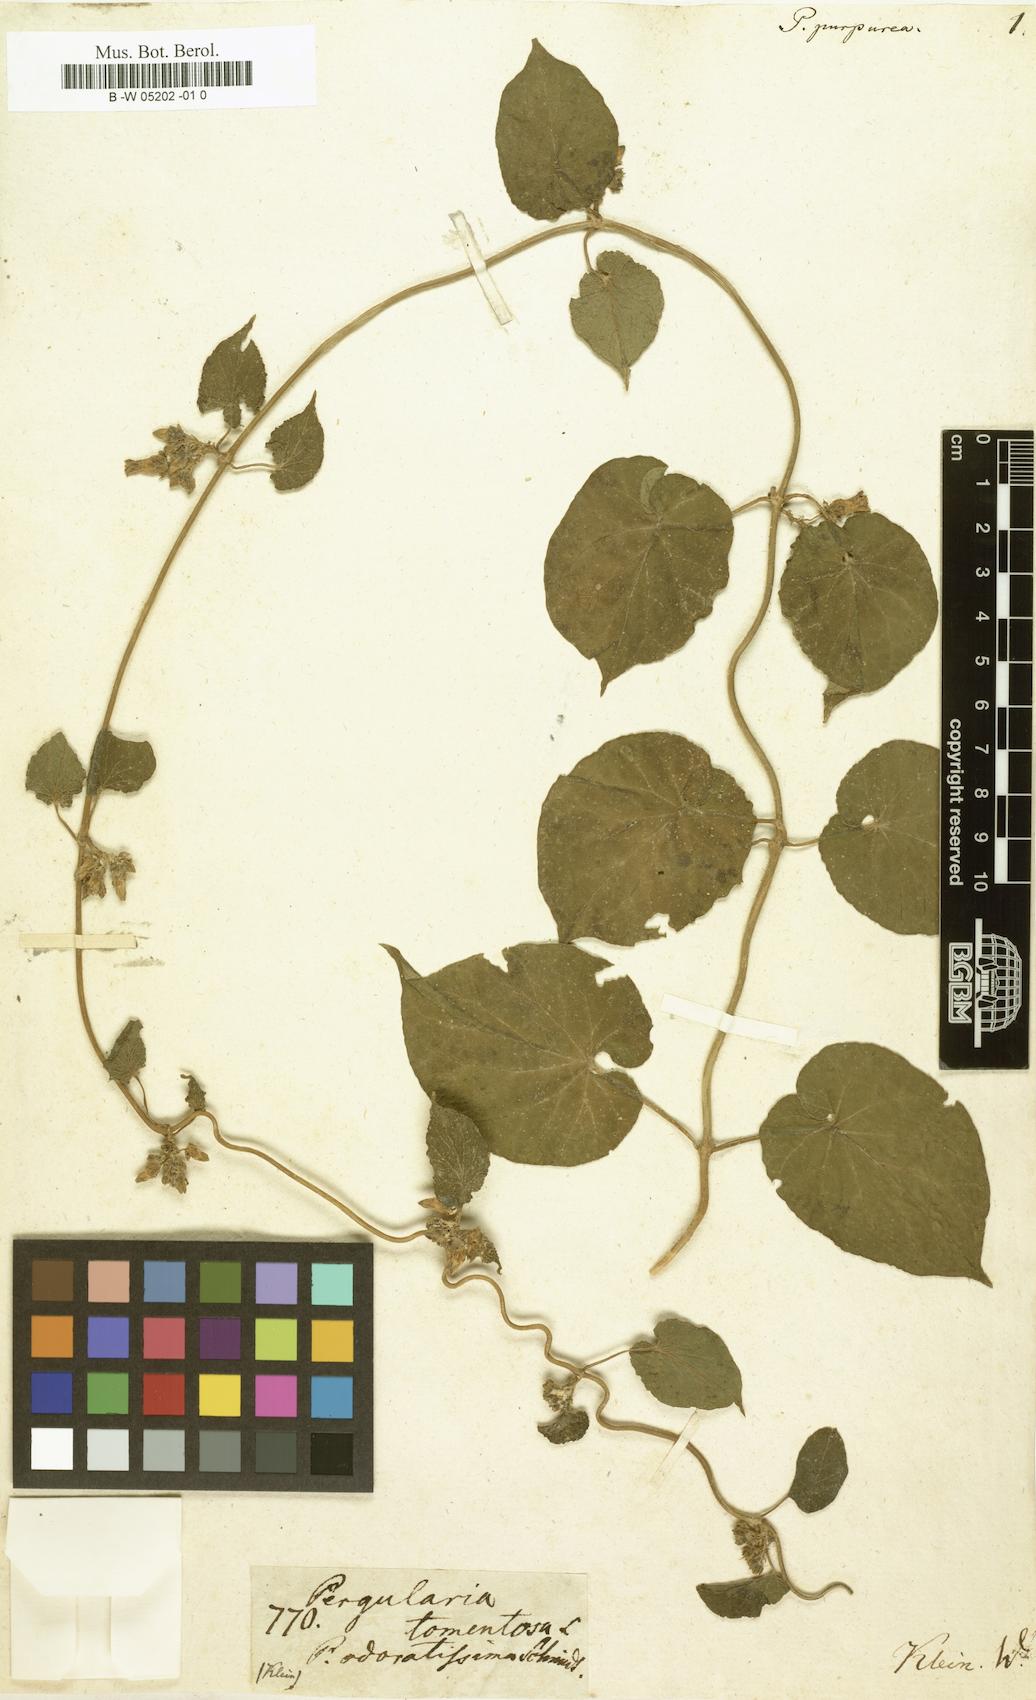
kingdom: Plantae
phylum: Tracheophyta
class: Magnoliopsida
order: Gentianales
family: Apocynaceae
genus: Pergularia
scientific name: Pergularia purpurea
